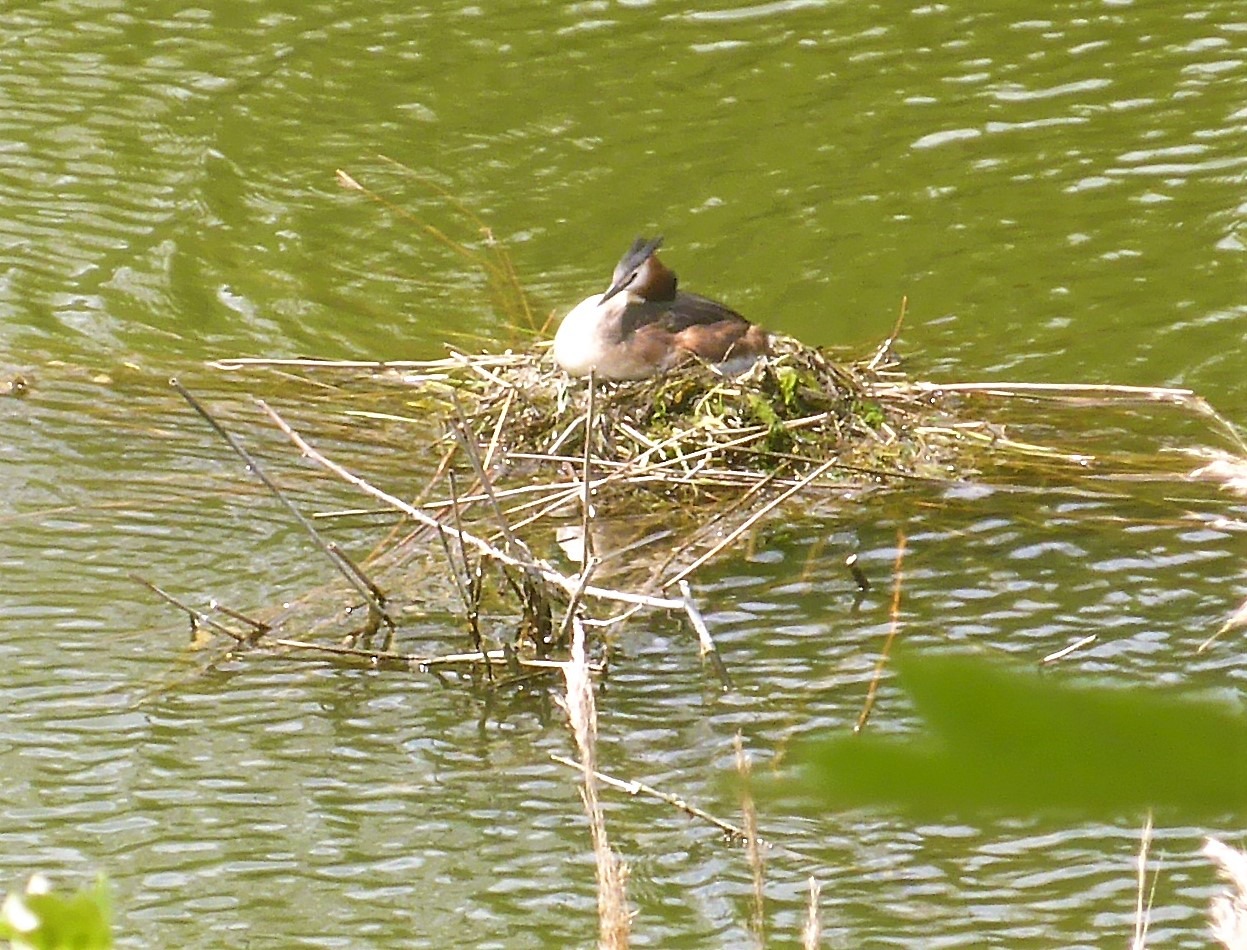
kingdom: Animalia
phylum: Chordata
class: Aves
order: Podicipediformes
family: Podicipedidae
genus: Podiceps
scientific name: Podiceps cristatus
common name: Toppet lappedykker
